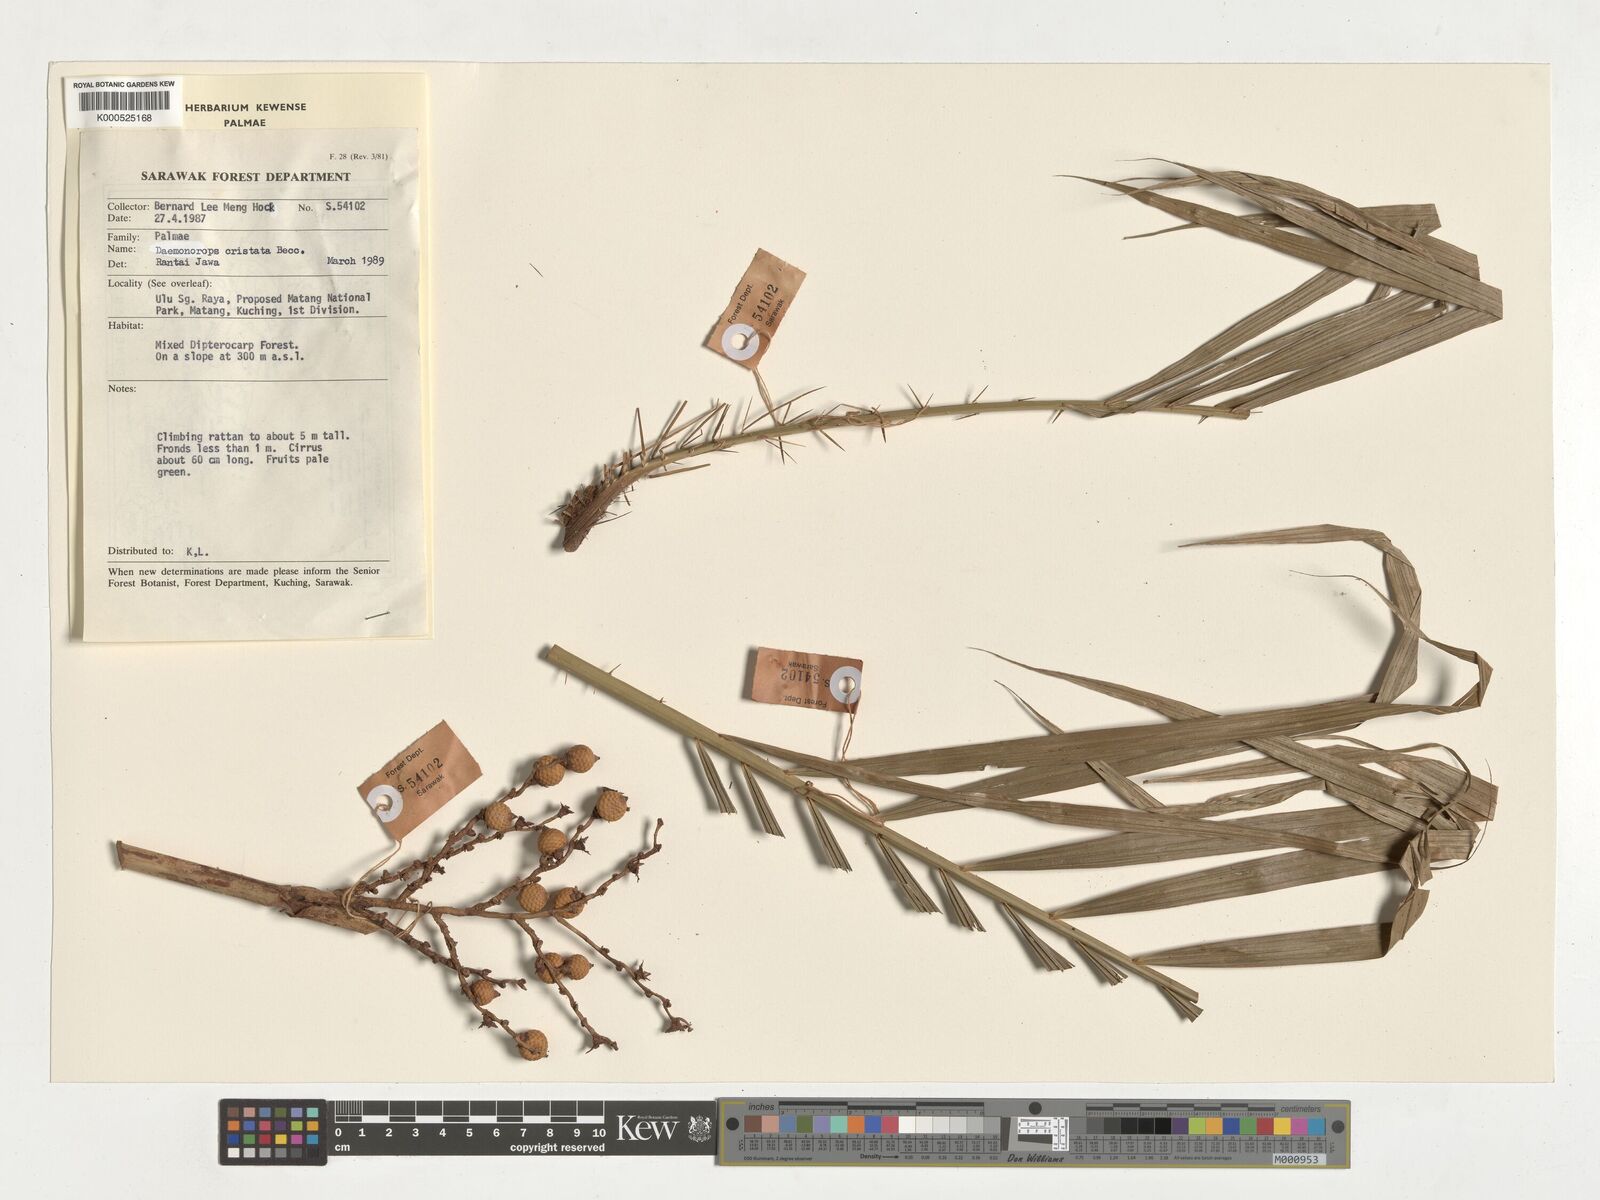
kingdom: Plantae
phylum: Tracheophyta
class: Liliopsida
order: Arecales
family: Arecaceae
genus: Calamus
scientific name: Calamus cristatus
